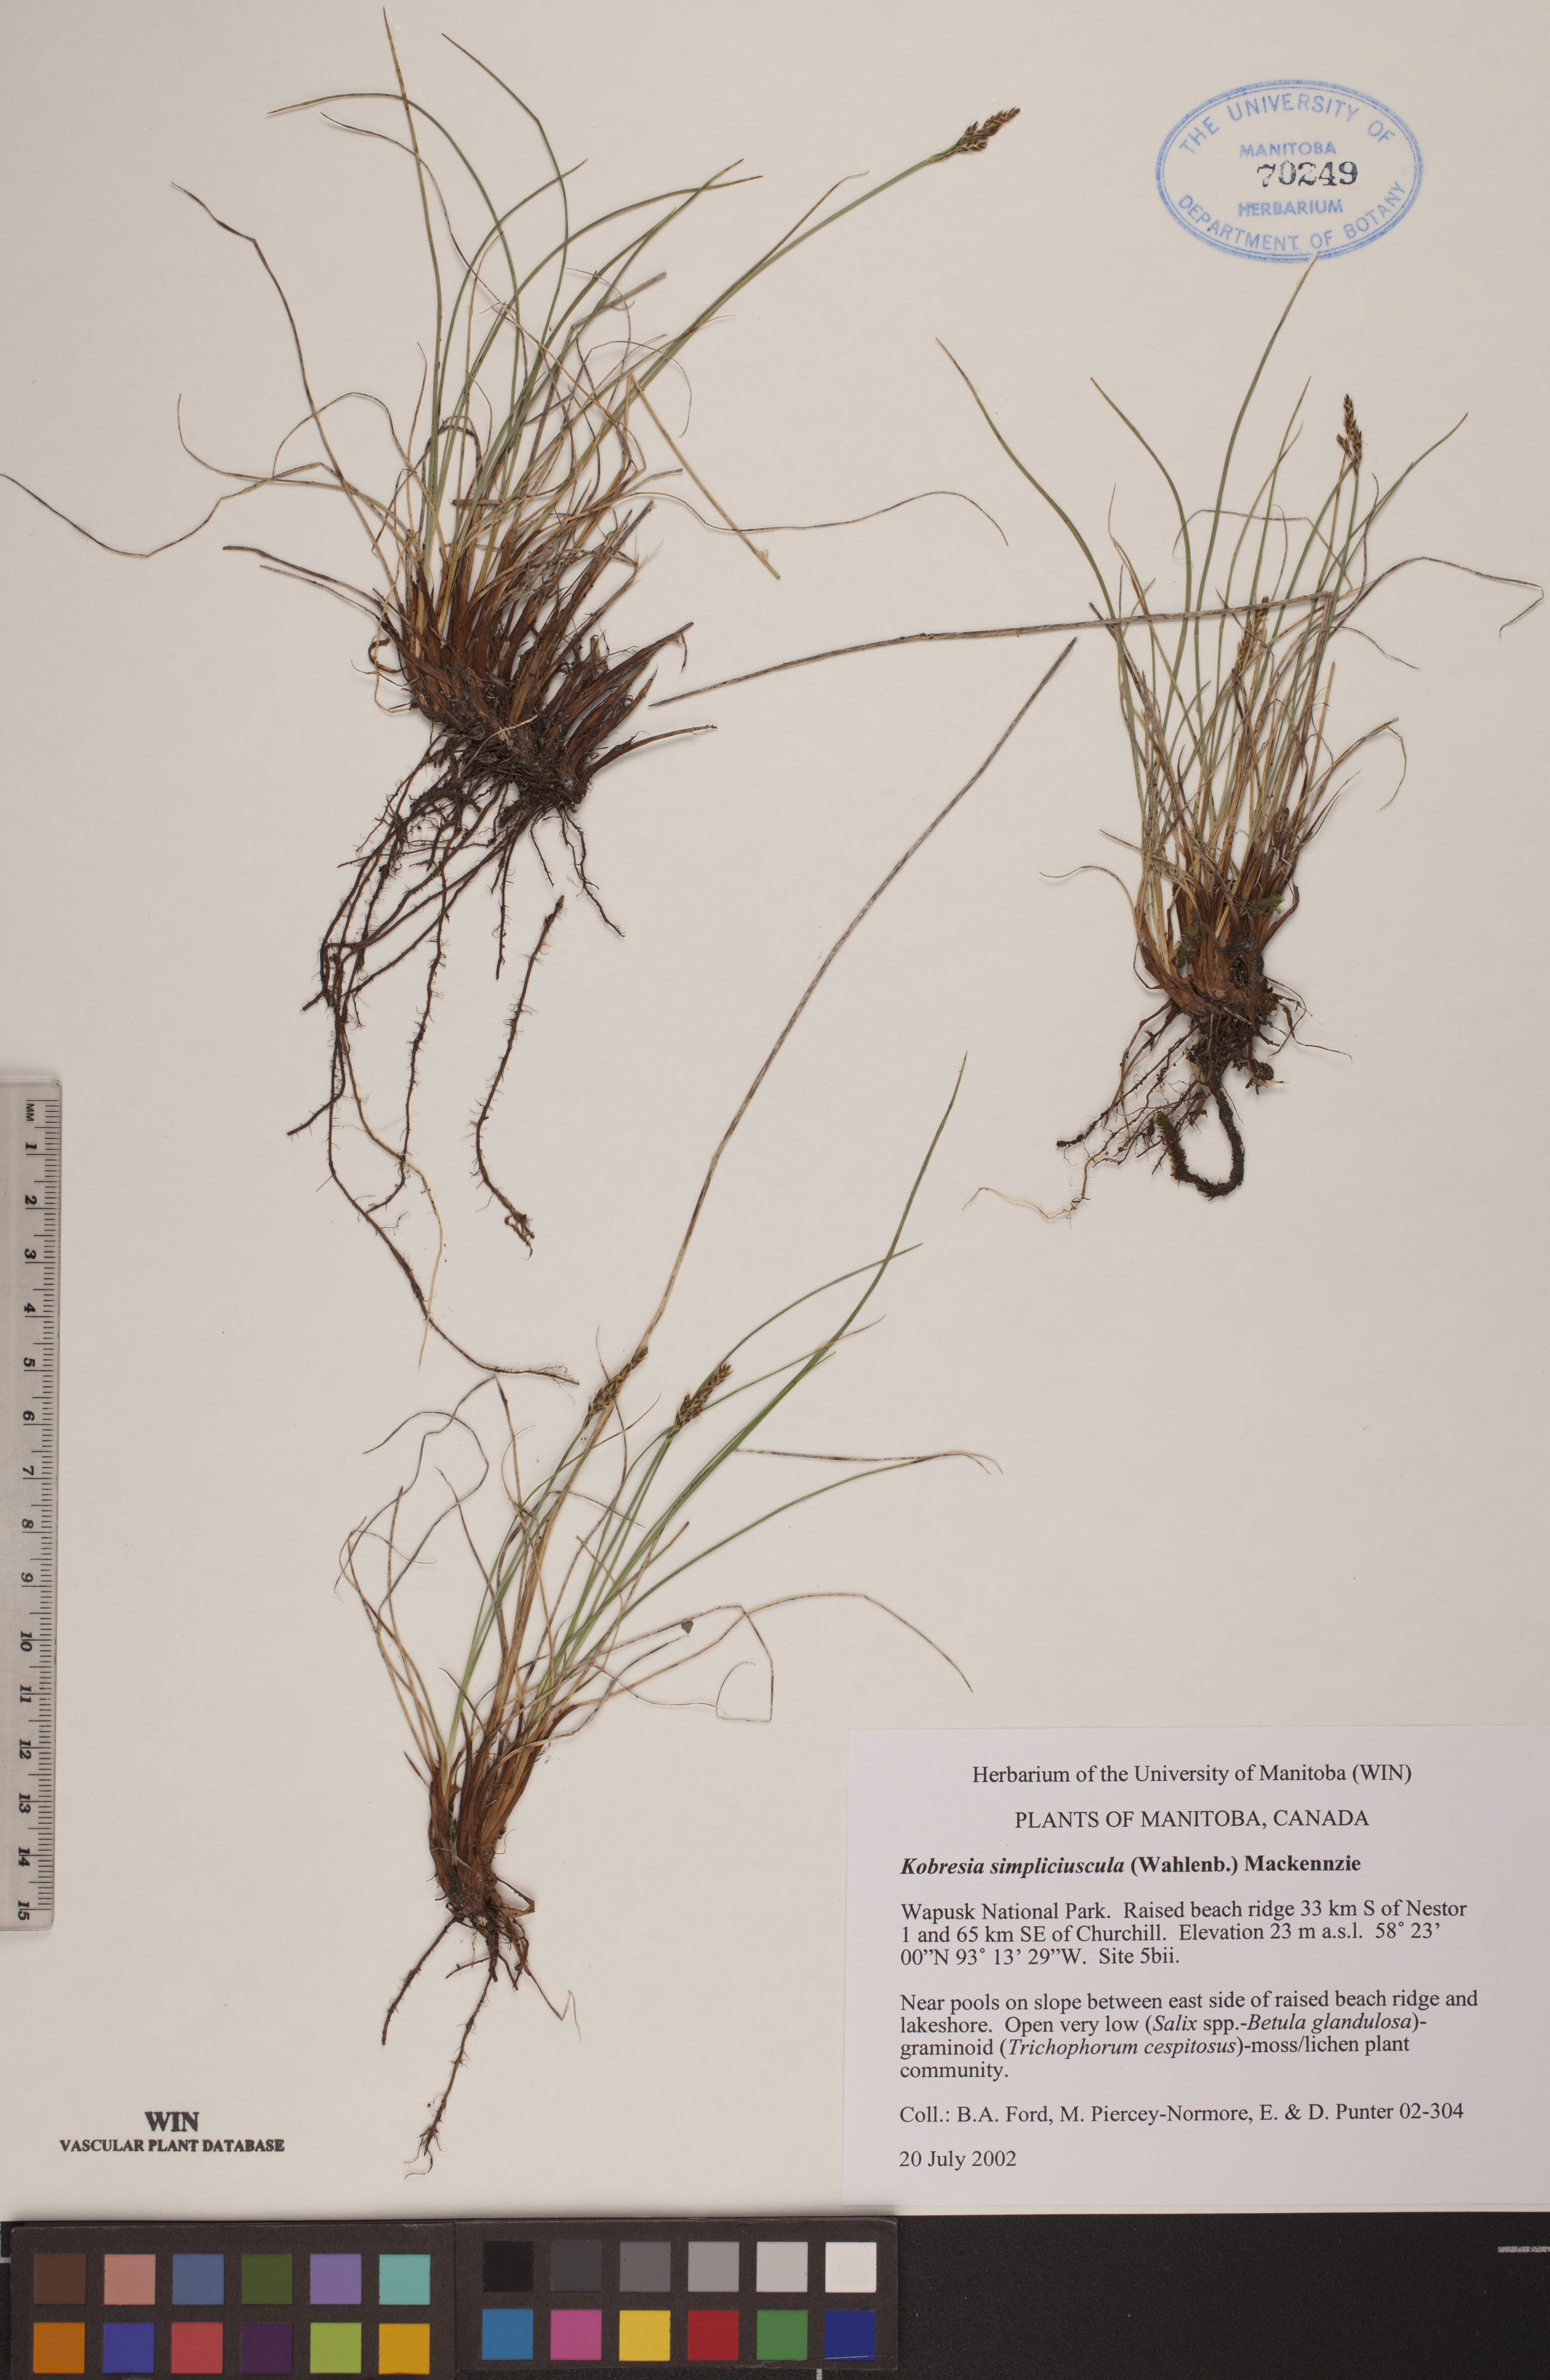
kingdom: Plantae
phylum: Tracheophyta
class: Liliopsida
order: Poales
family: Cyperaceae
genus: Carex
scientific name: Carex simpliciuscula
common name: Simple bog sedge
